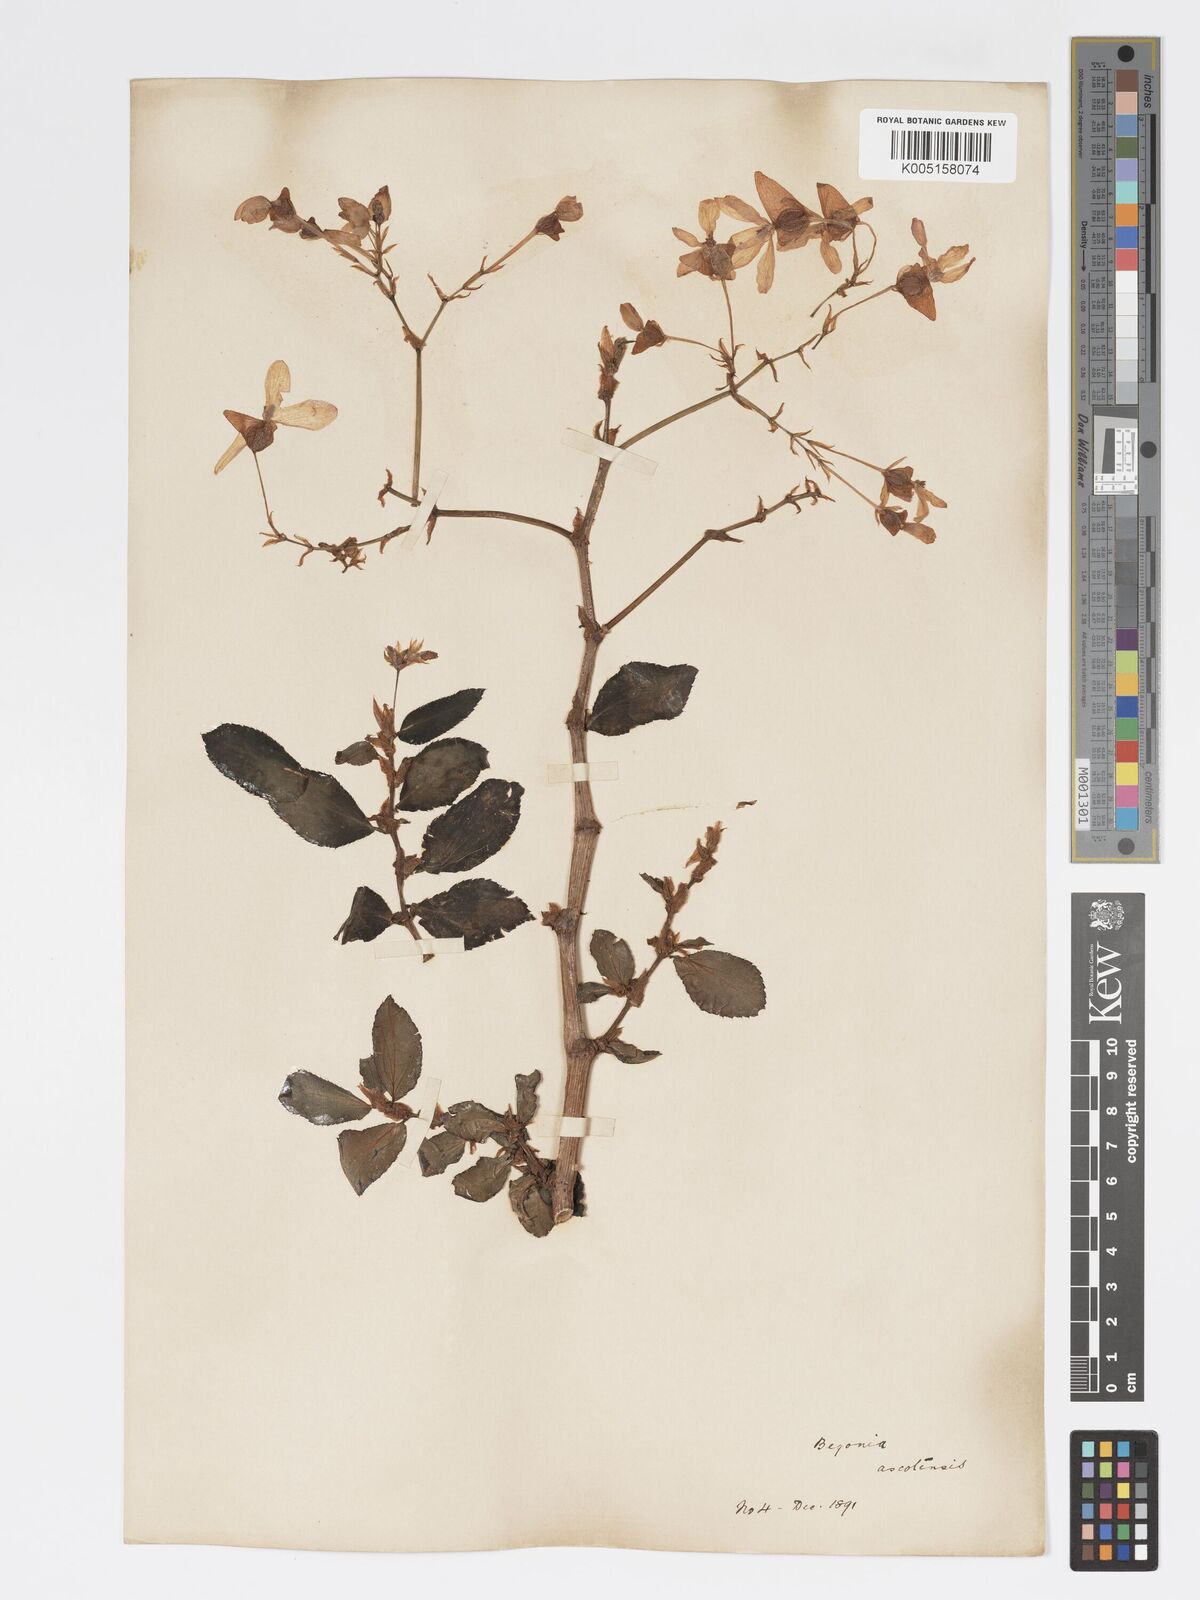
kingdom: Plantae
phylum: Tracheophyta
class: Magnoliopsida
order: Cucurbitales
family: Begoniaceae
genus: Begonia
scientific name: Begonia ascotiensis
